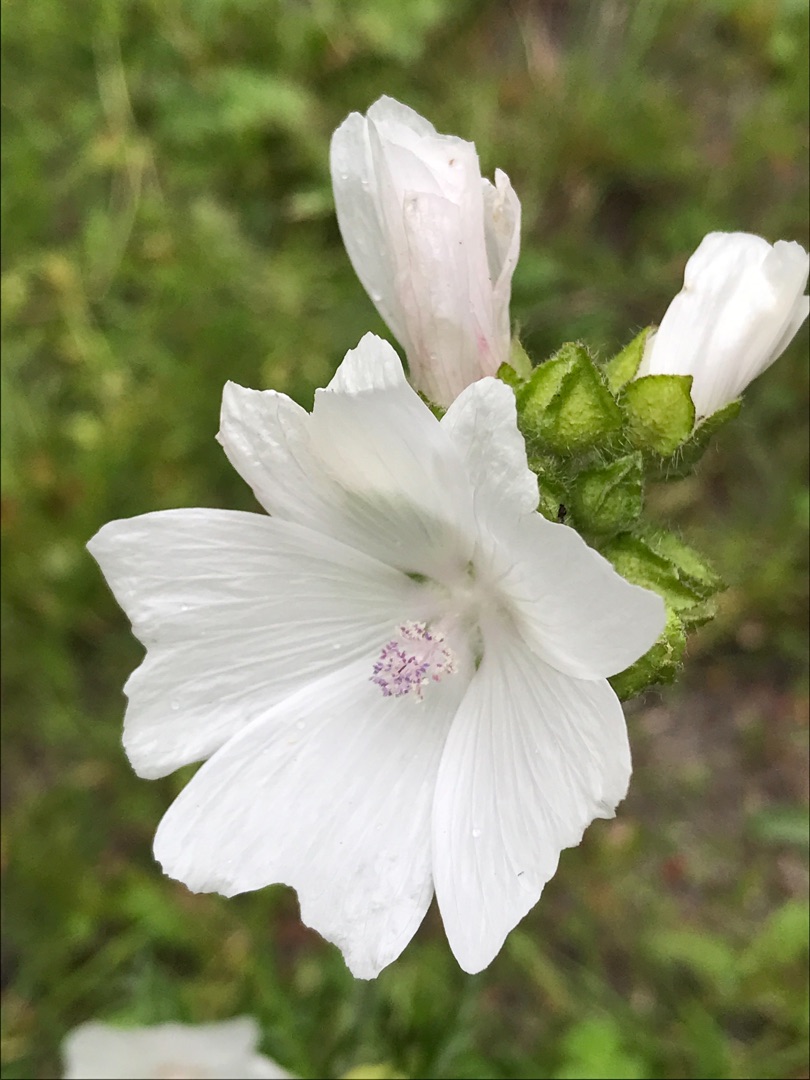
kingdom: Plantae
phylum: Tracheophyta
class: Magnoliopsida
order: Malvales
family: Malvaceae
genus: Malva
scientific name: Malva moschata
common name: Moskus-katost
